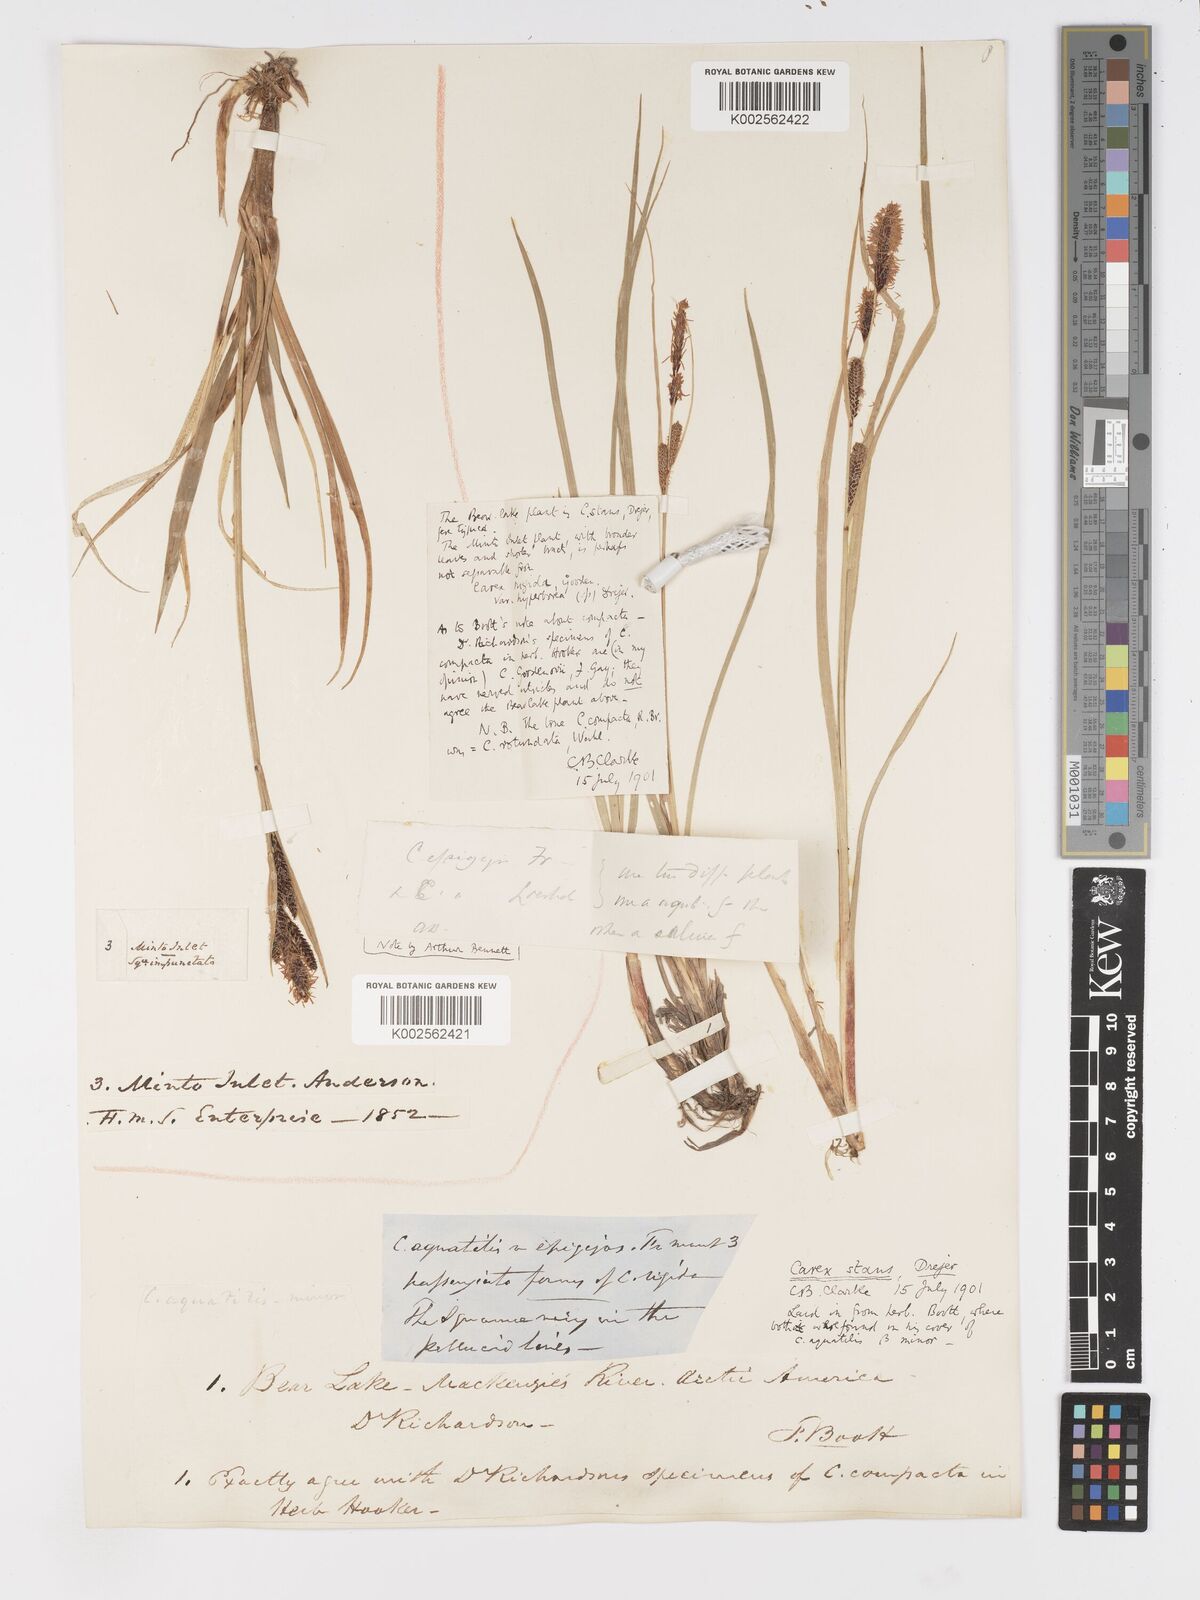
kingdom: Plantae
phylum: Tracheophyta
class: Liliopsida
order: Poales
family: Cyperaceae
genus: Carex
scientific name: Carex
